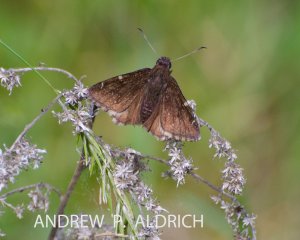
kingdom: Animalia
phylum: Arthropoda
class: Insecta
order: Lepidoptera
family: Hesperiidae
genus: Autochton
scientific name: Autochton
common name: Northern Cloudywing
